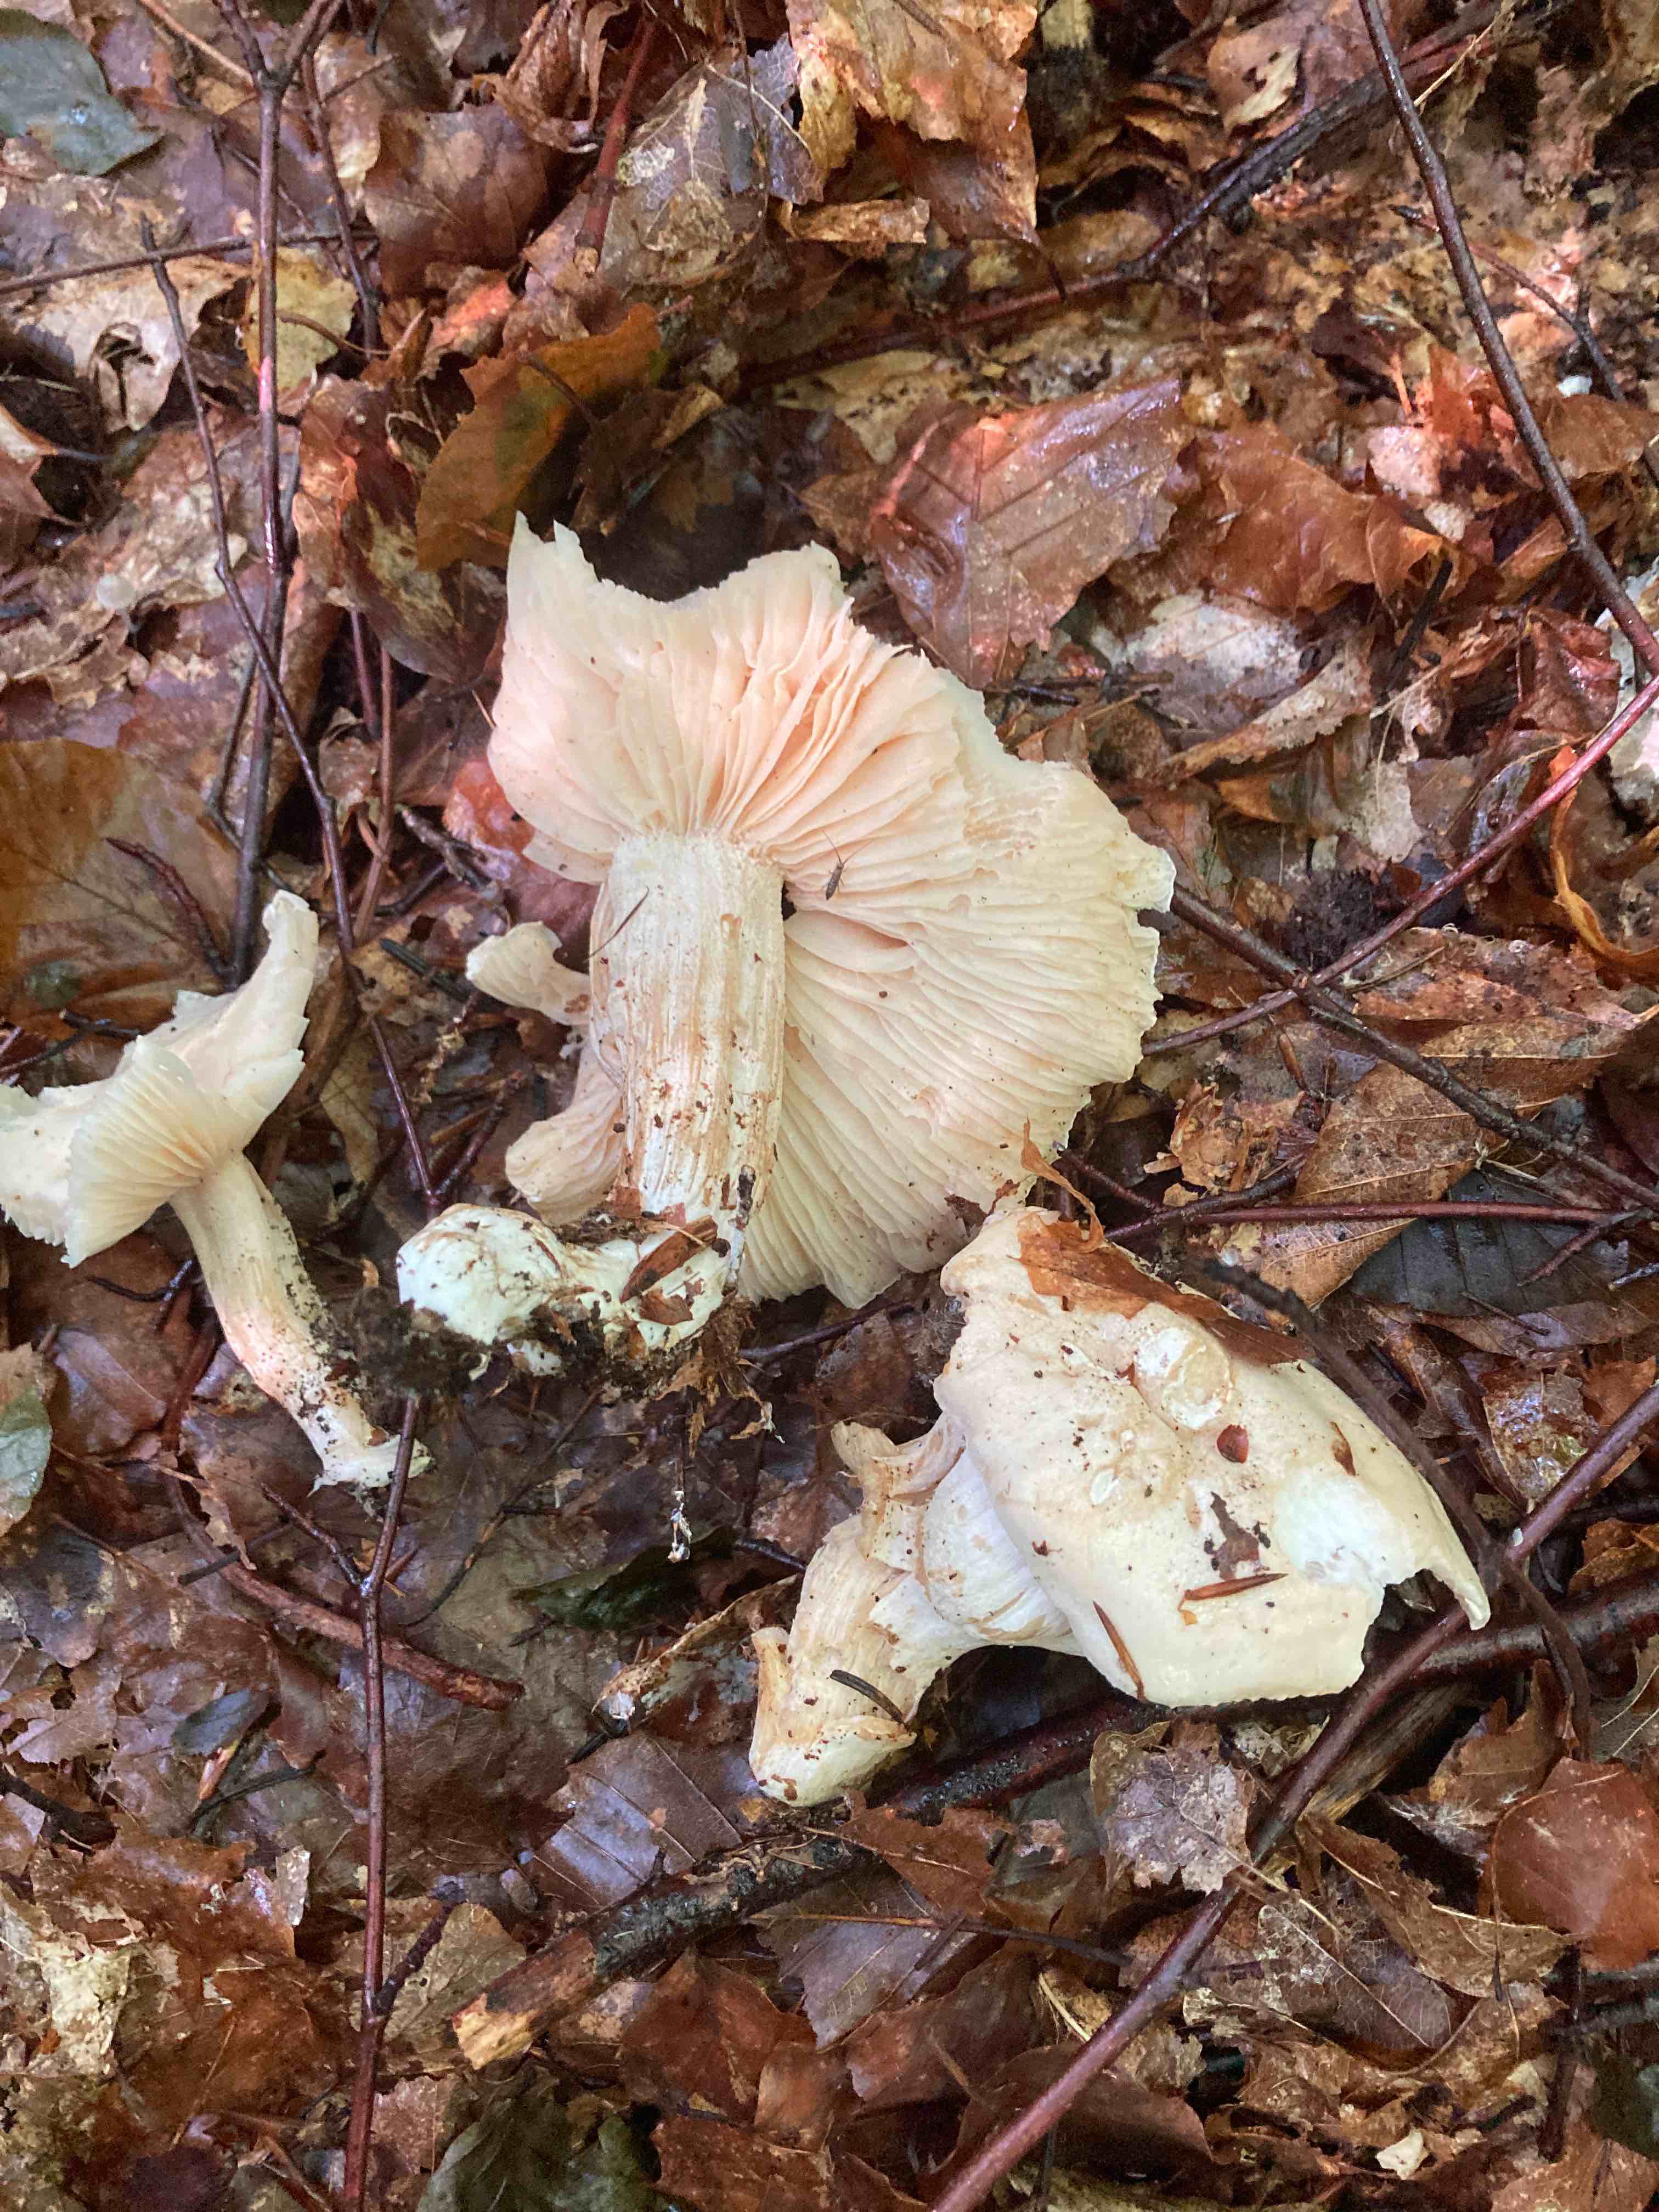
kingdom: Fungi
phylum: Basidiomycota
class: Agaricomycetes
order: Agaricales
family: Hygrophoraceae
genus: Hygrophorus
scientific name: Hygrophorus penarius
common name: spiselig sneglehat
